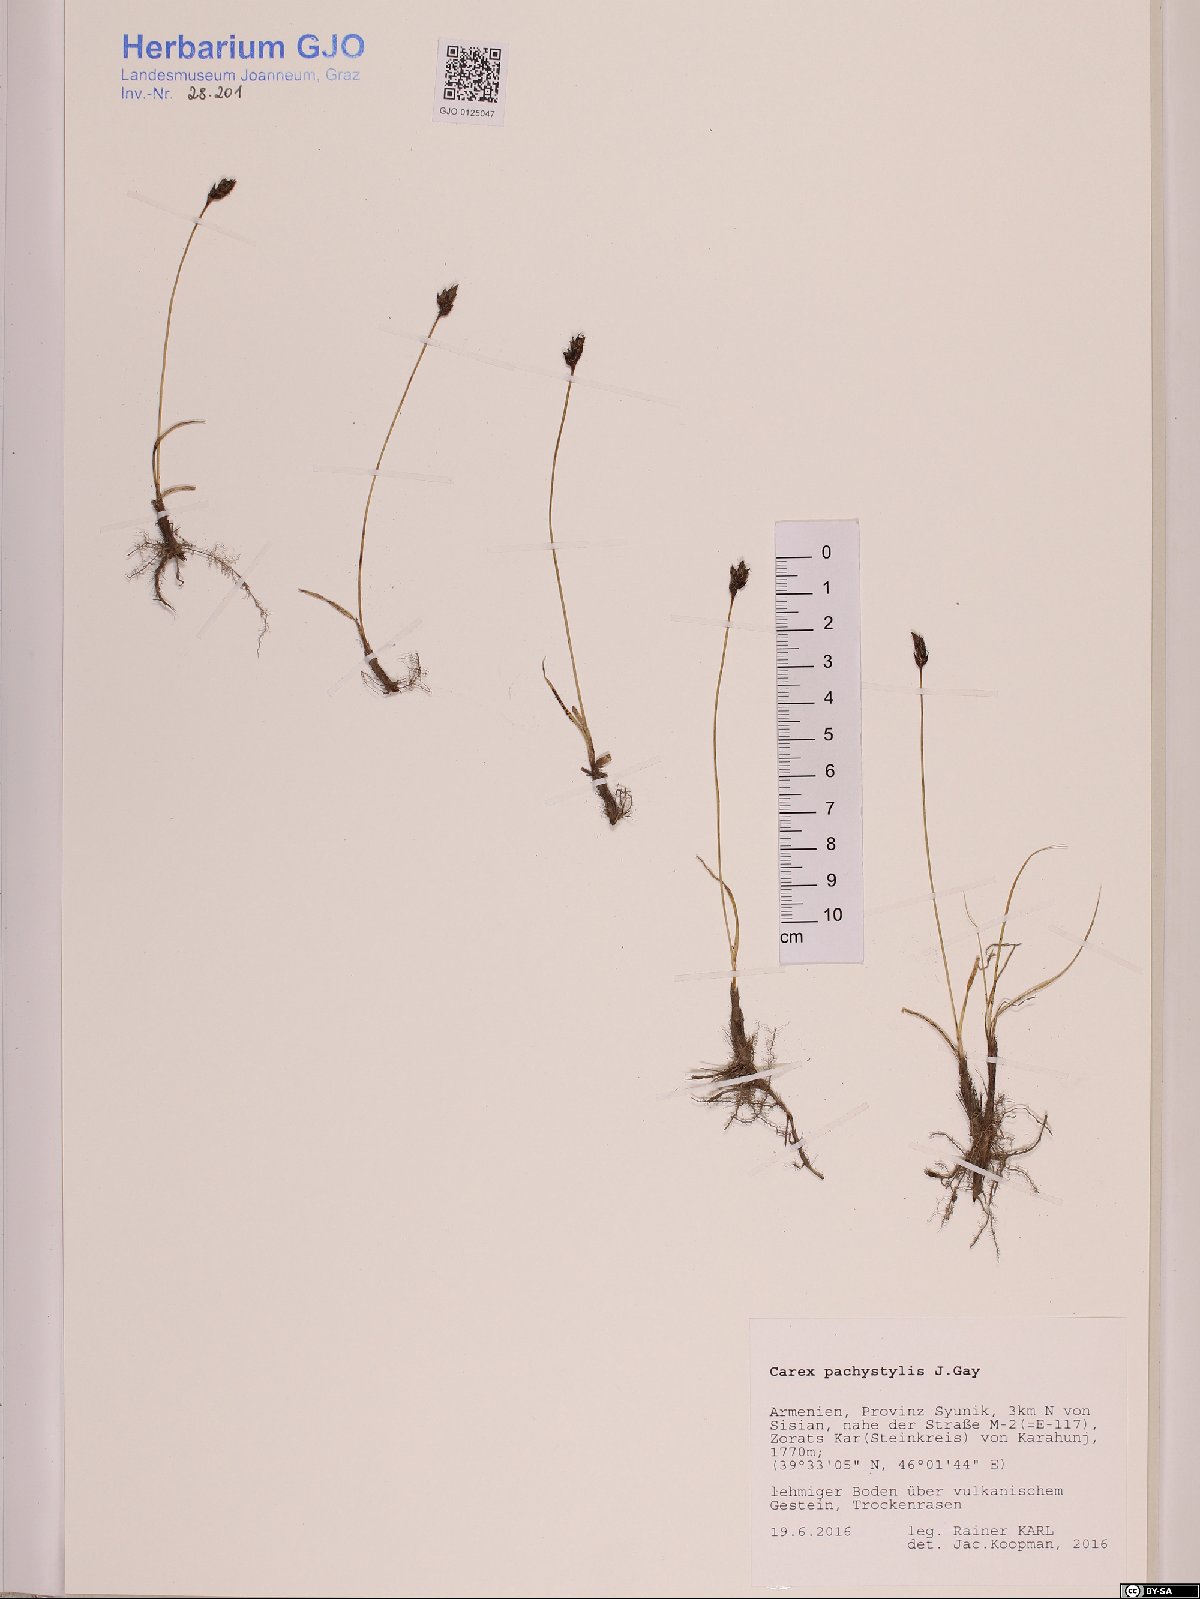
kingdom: Plantae
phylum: Tracheophyta
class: Liliopsida
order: Poales
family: Cyperaceae
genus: Carex
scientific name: Carex pachystylis
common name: Thick-stem sedge
